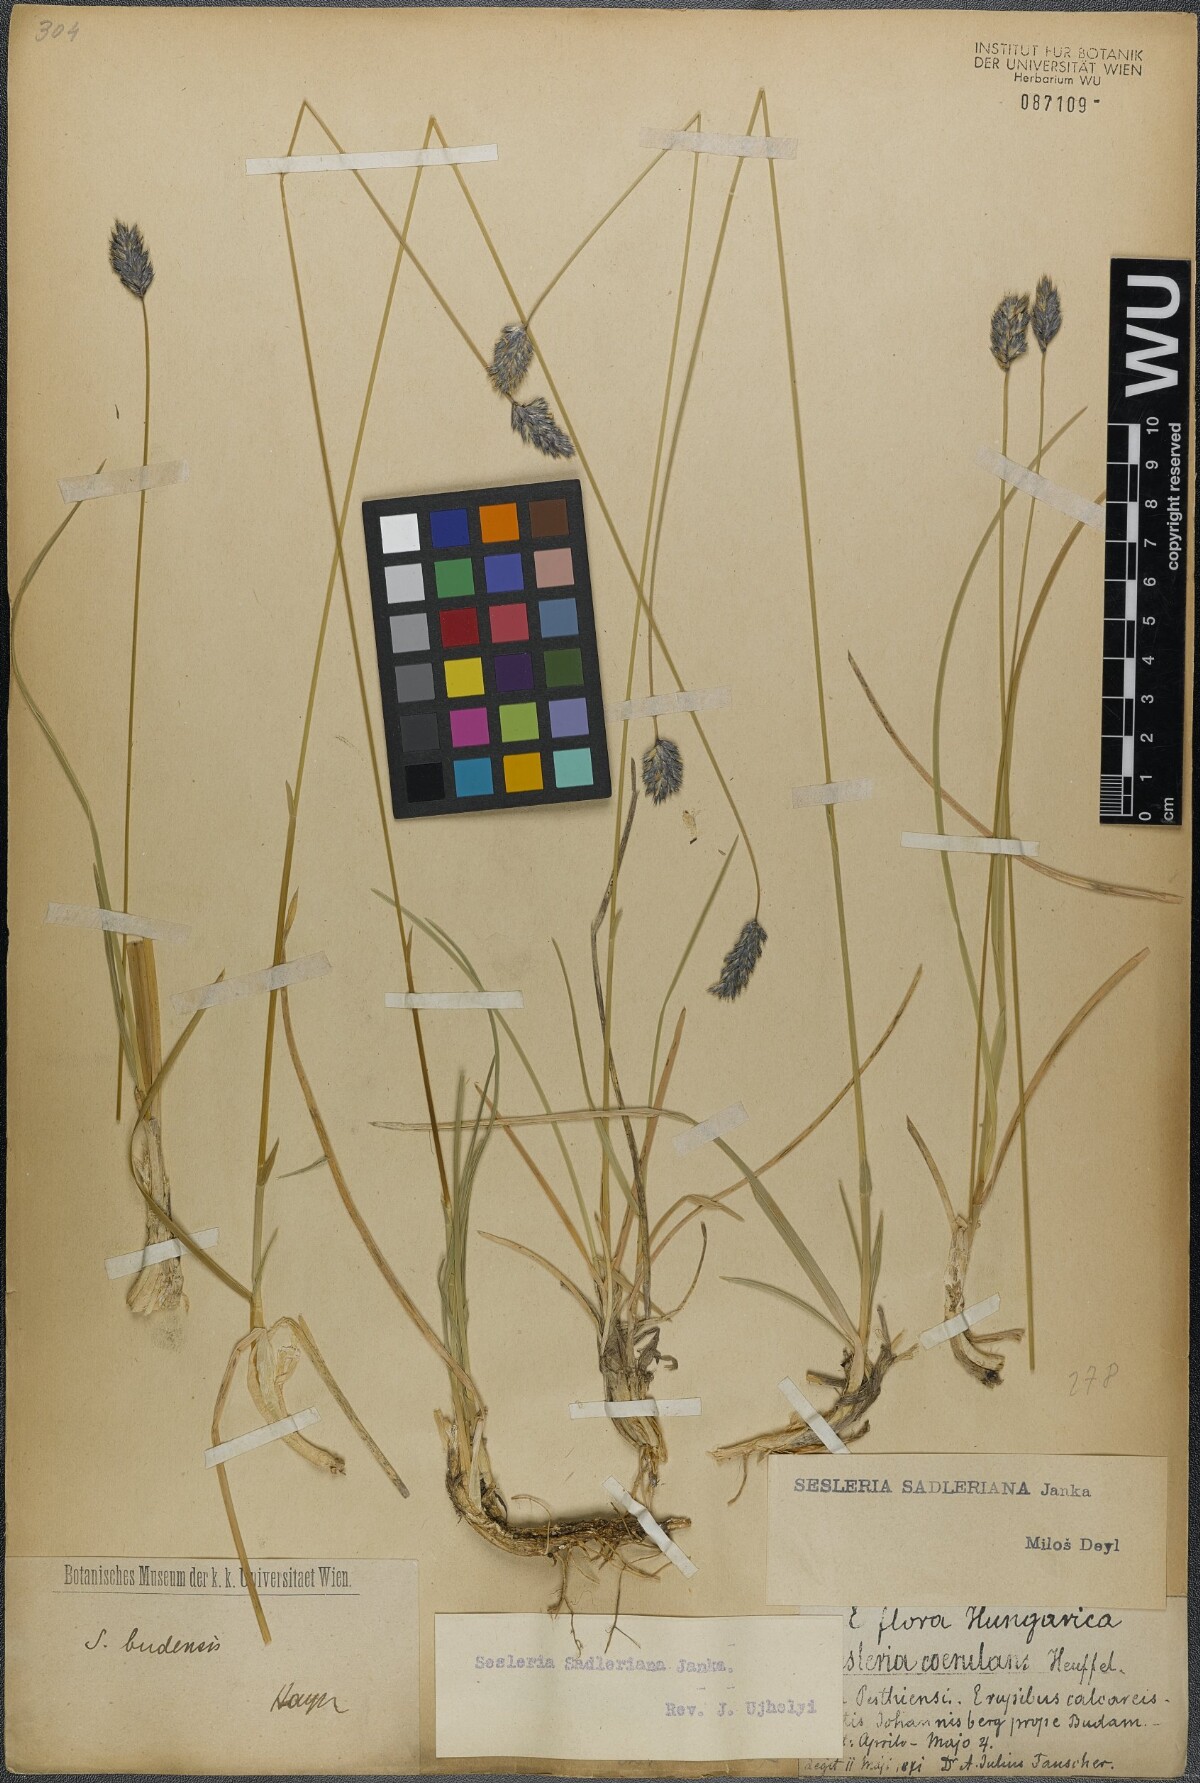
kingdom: Plantae
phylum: Tracheophyta
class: Liliopsida
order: Poales
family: Poaceae
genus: Sesleria
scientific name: Sesleria sadleriana
